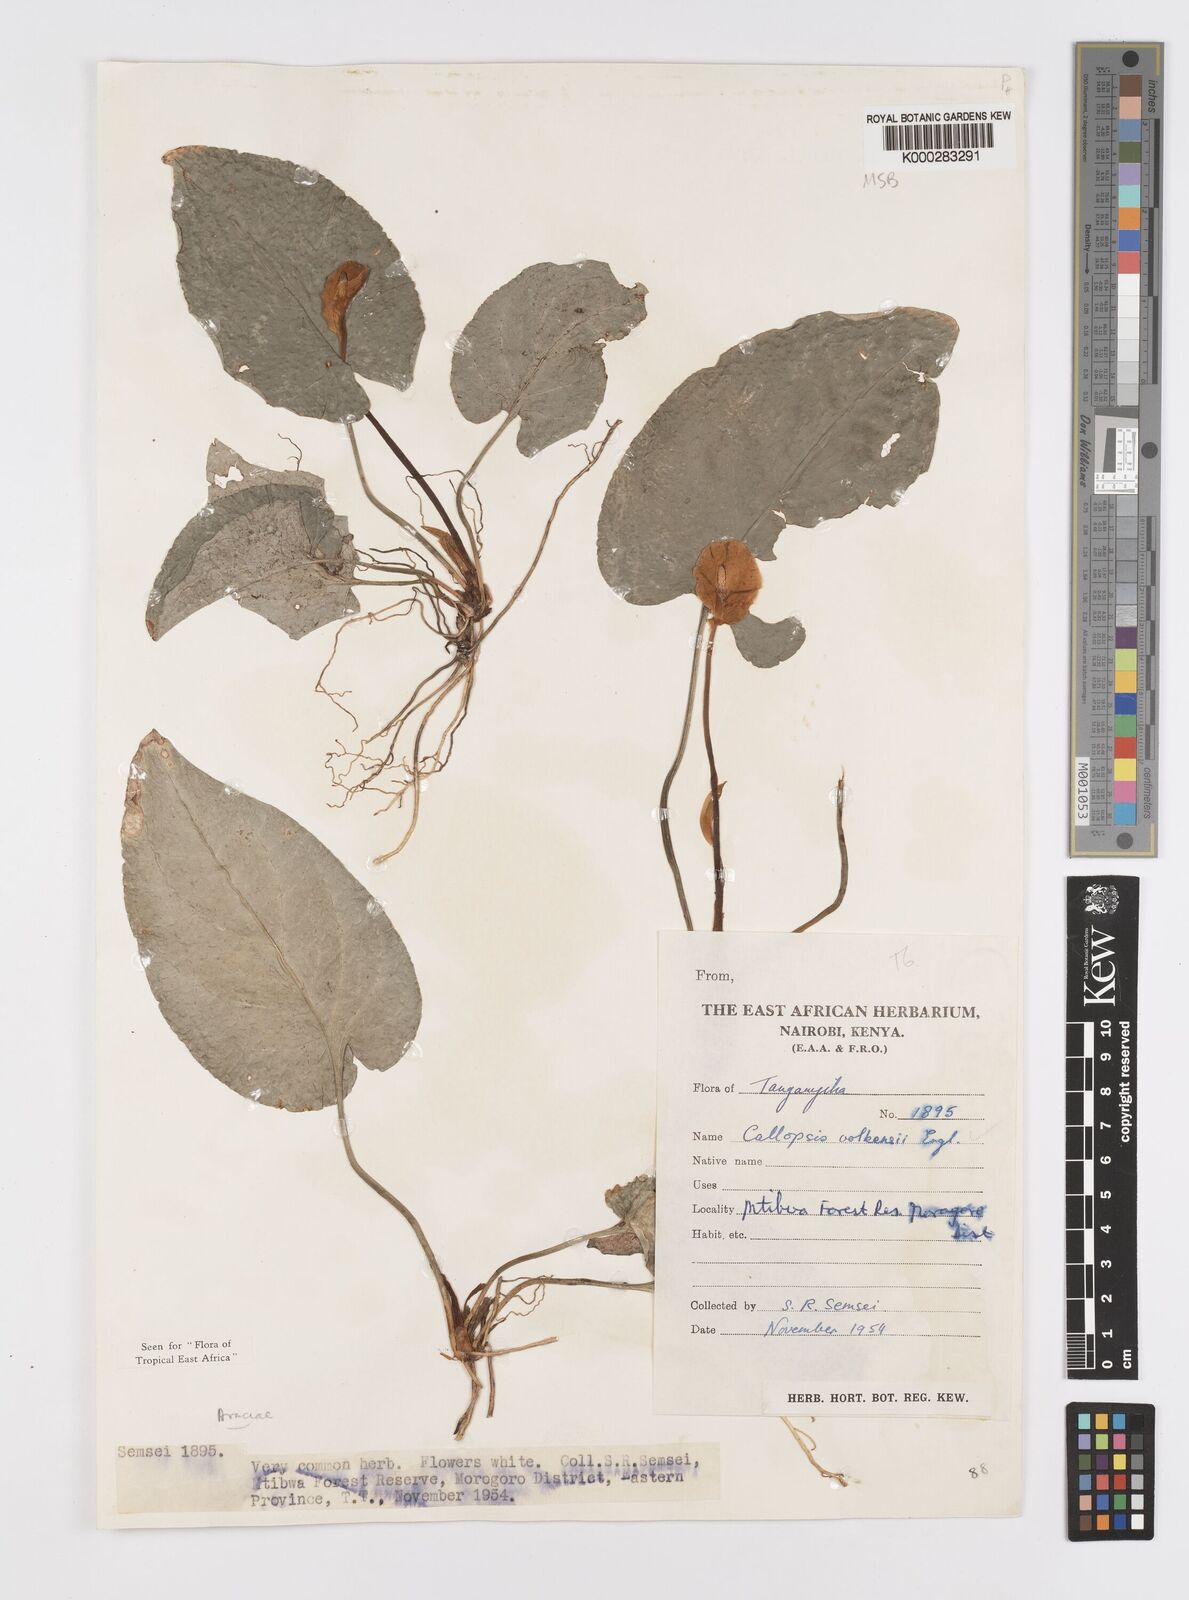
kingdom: Plantae
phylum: Tracheophyta
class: Liliopsida
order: Alismatales
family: Araceae
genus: Callopsis
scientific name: Callopsis volkensii
